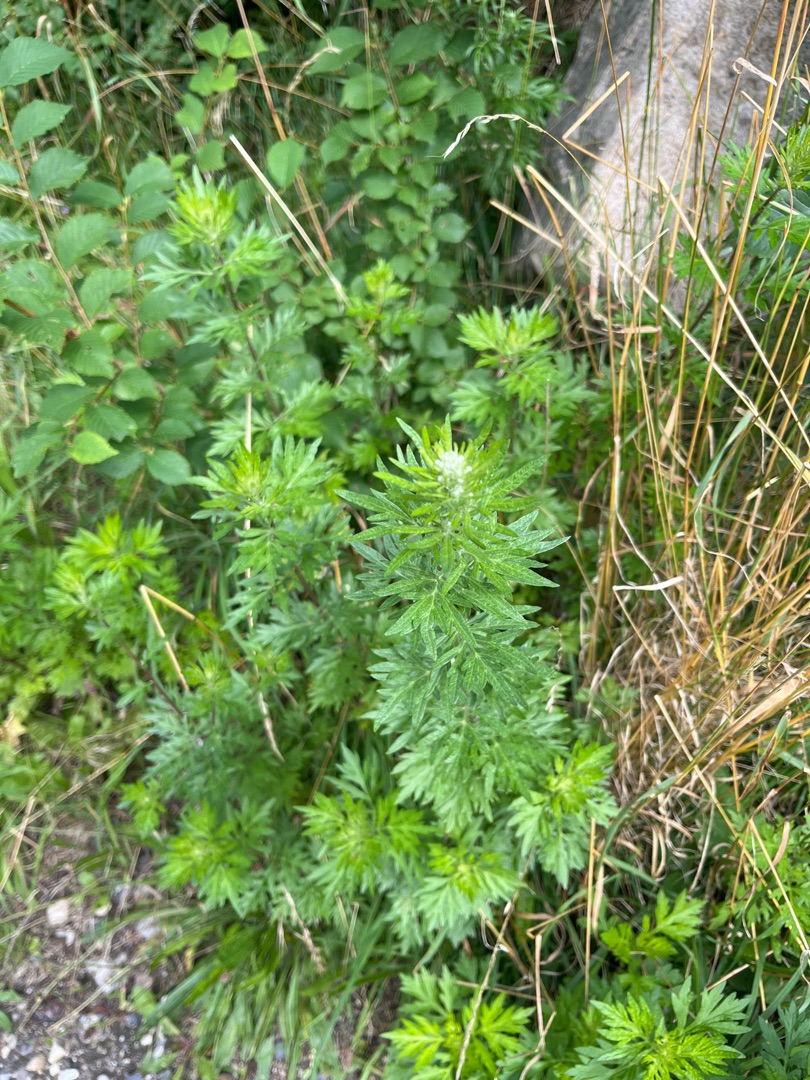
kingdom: Plantae
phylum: Tracheophyta
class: Magnoliopsida
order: Asterales
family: Asteraceae
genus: Artemisia
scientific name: Artemisia vulgaris
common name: Grå-bynke
